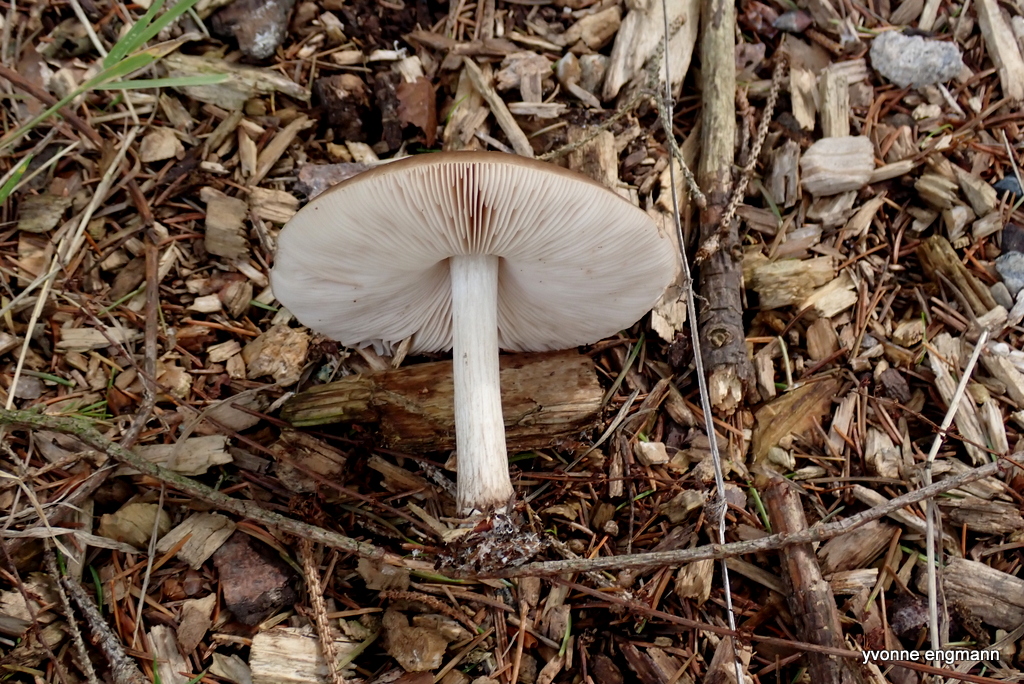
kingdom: Fungi
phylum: Basidiomycota
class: Agaricomycetes
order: Agaricales
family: Pluteaceae
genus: Pluteus
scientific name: Pluteus cervinus
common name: sodfarvet skærmhat
